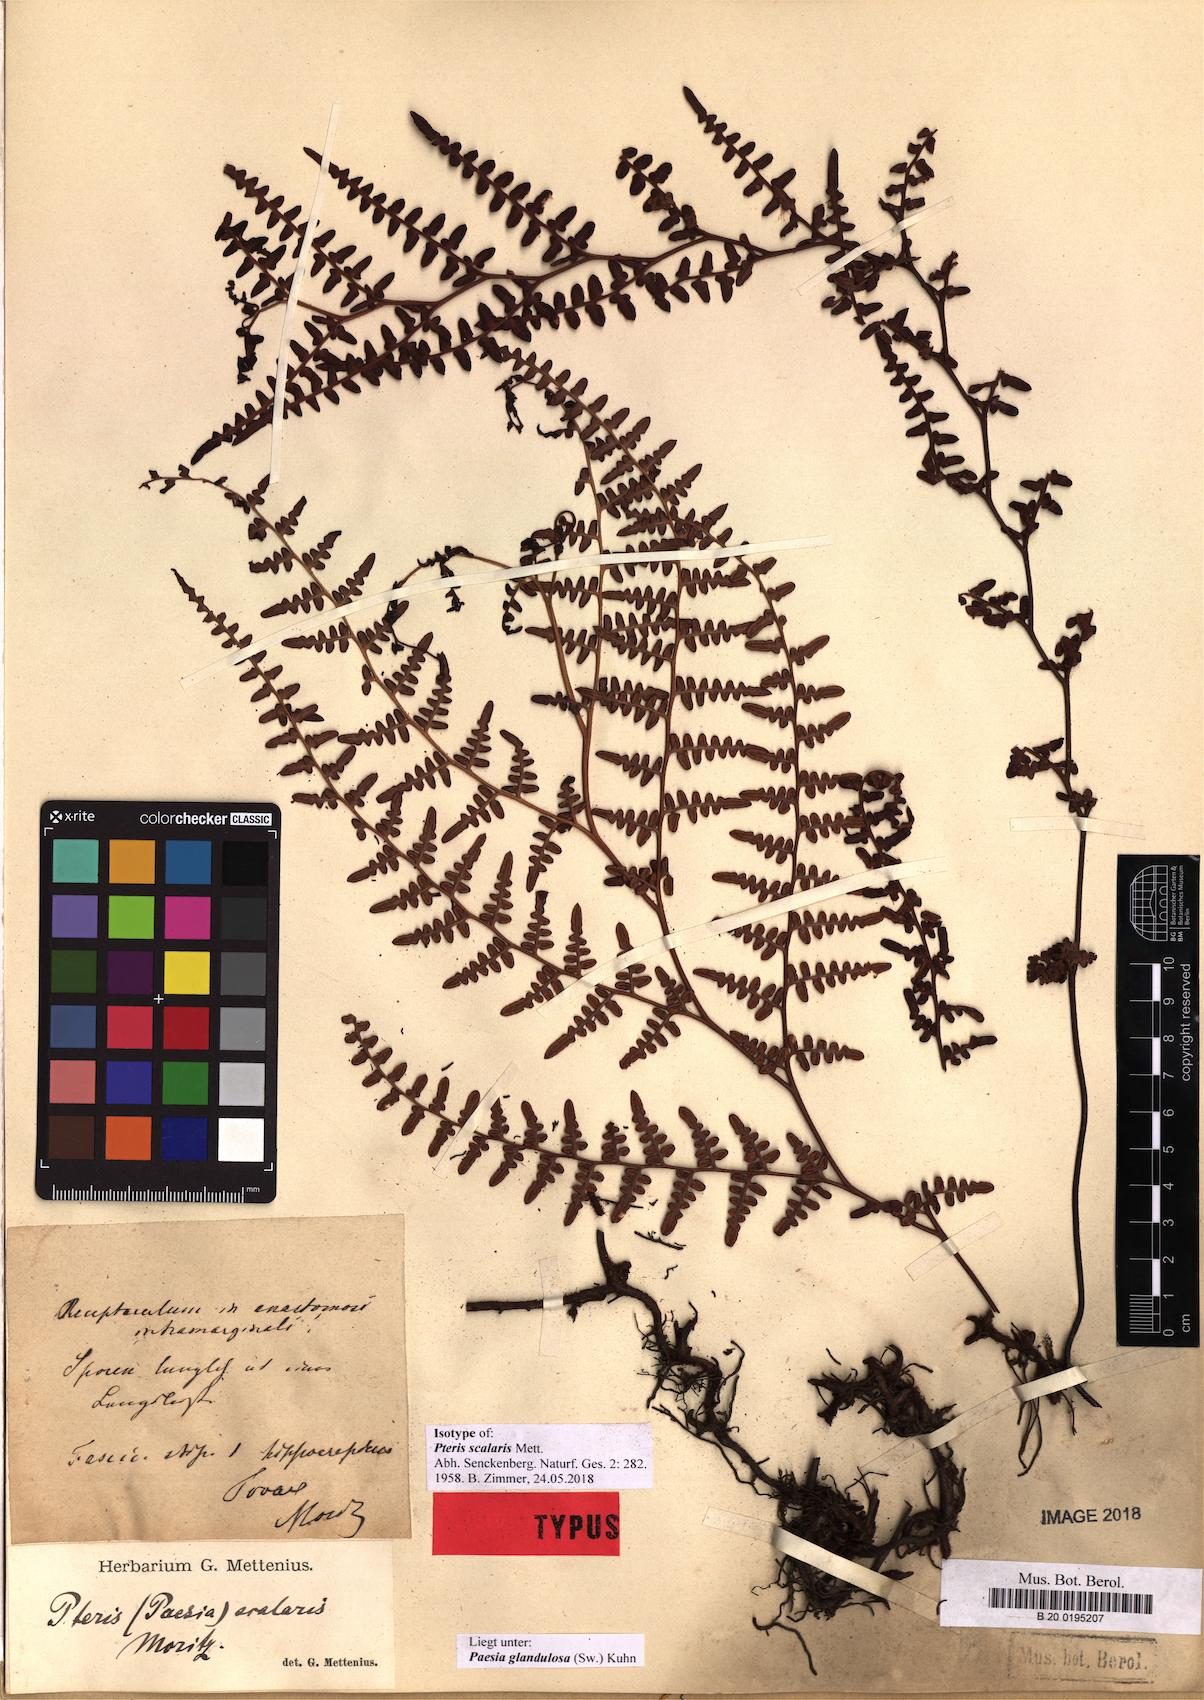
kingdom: Plantae
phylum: Tracheophyta
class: Polypodiopsida
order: Polypodiales
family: Dennstaedtiaceae
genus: Paesia
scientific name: Paesia glandulosa
